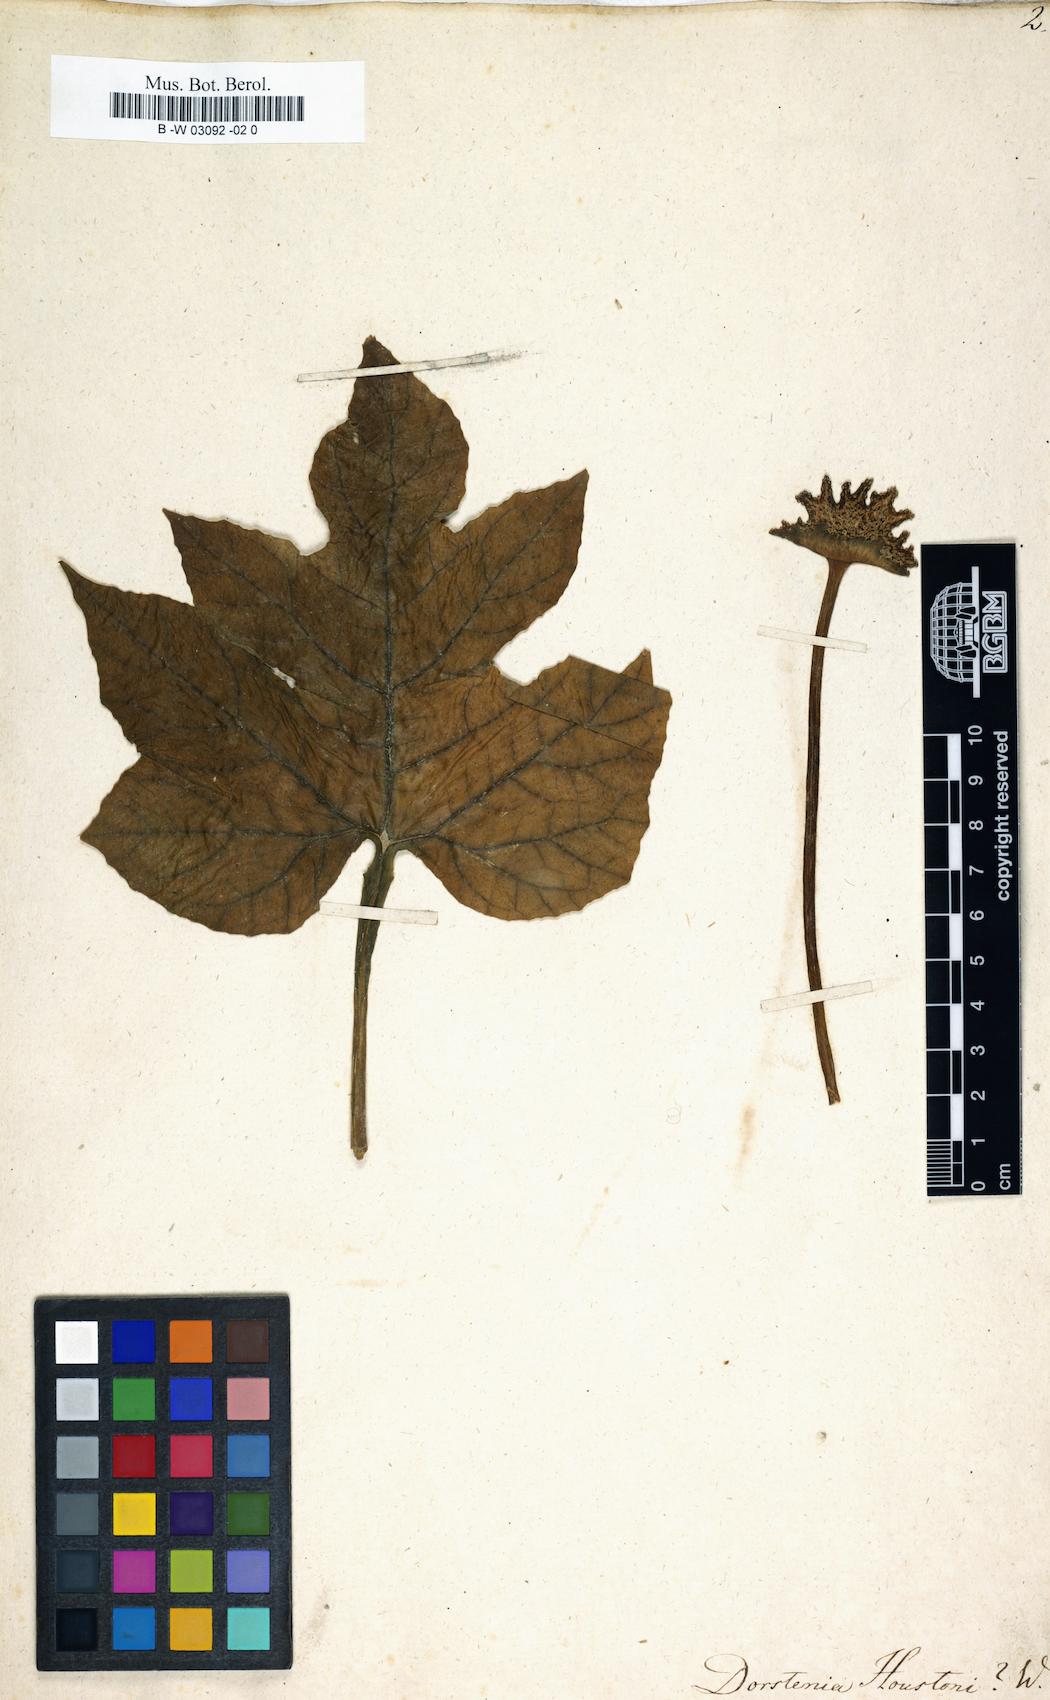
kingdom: Plantae
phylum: Tracheophyta
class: Magnoliopsida
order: Rosales
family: Moraceae
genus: Dorstenia
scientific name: Dorstenia contrajerva
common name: Tusilla
